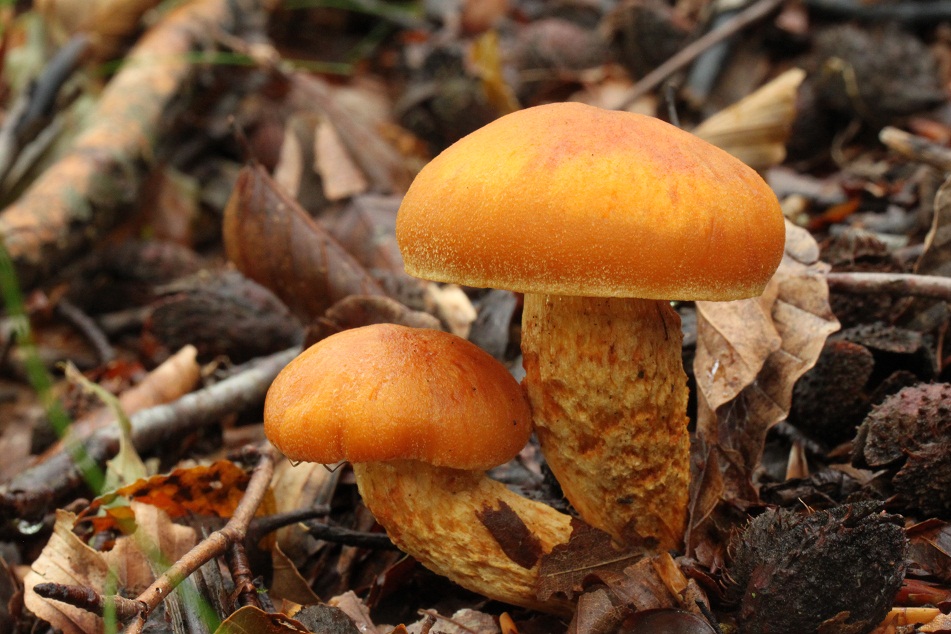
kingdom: Fungi
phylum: Basidiomycota
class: Agaricomycetes
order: Agaricales
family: Cortinariaceae
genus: Aureonarius
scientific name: Aureonarius limonius
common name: orangegul slørhat
